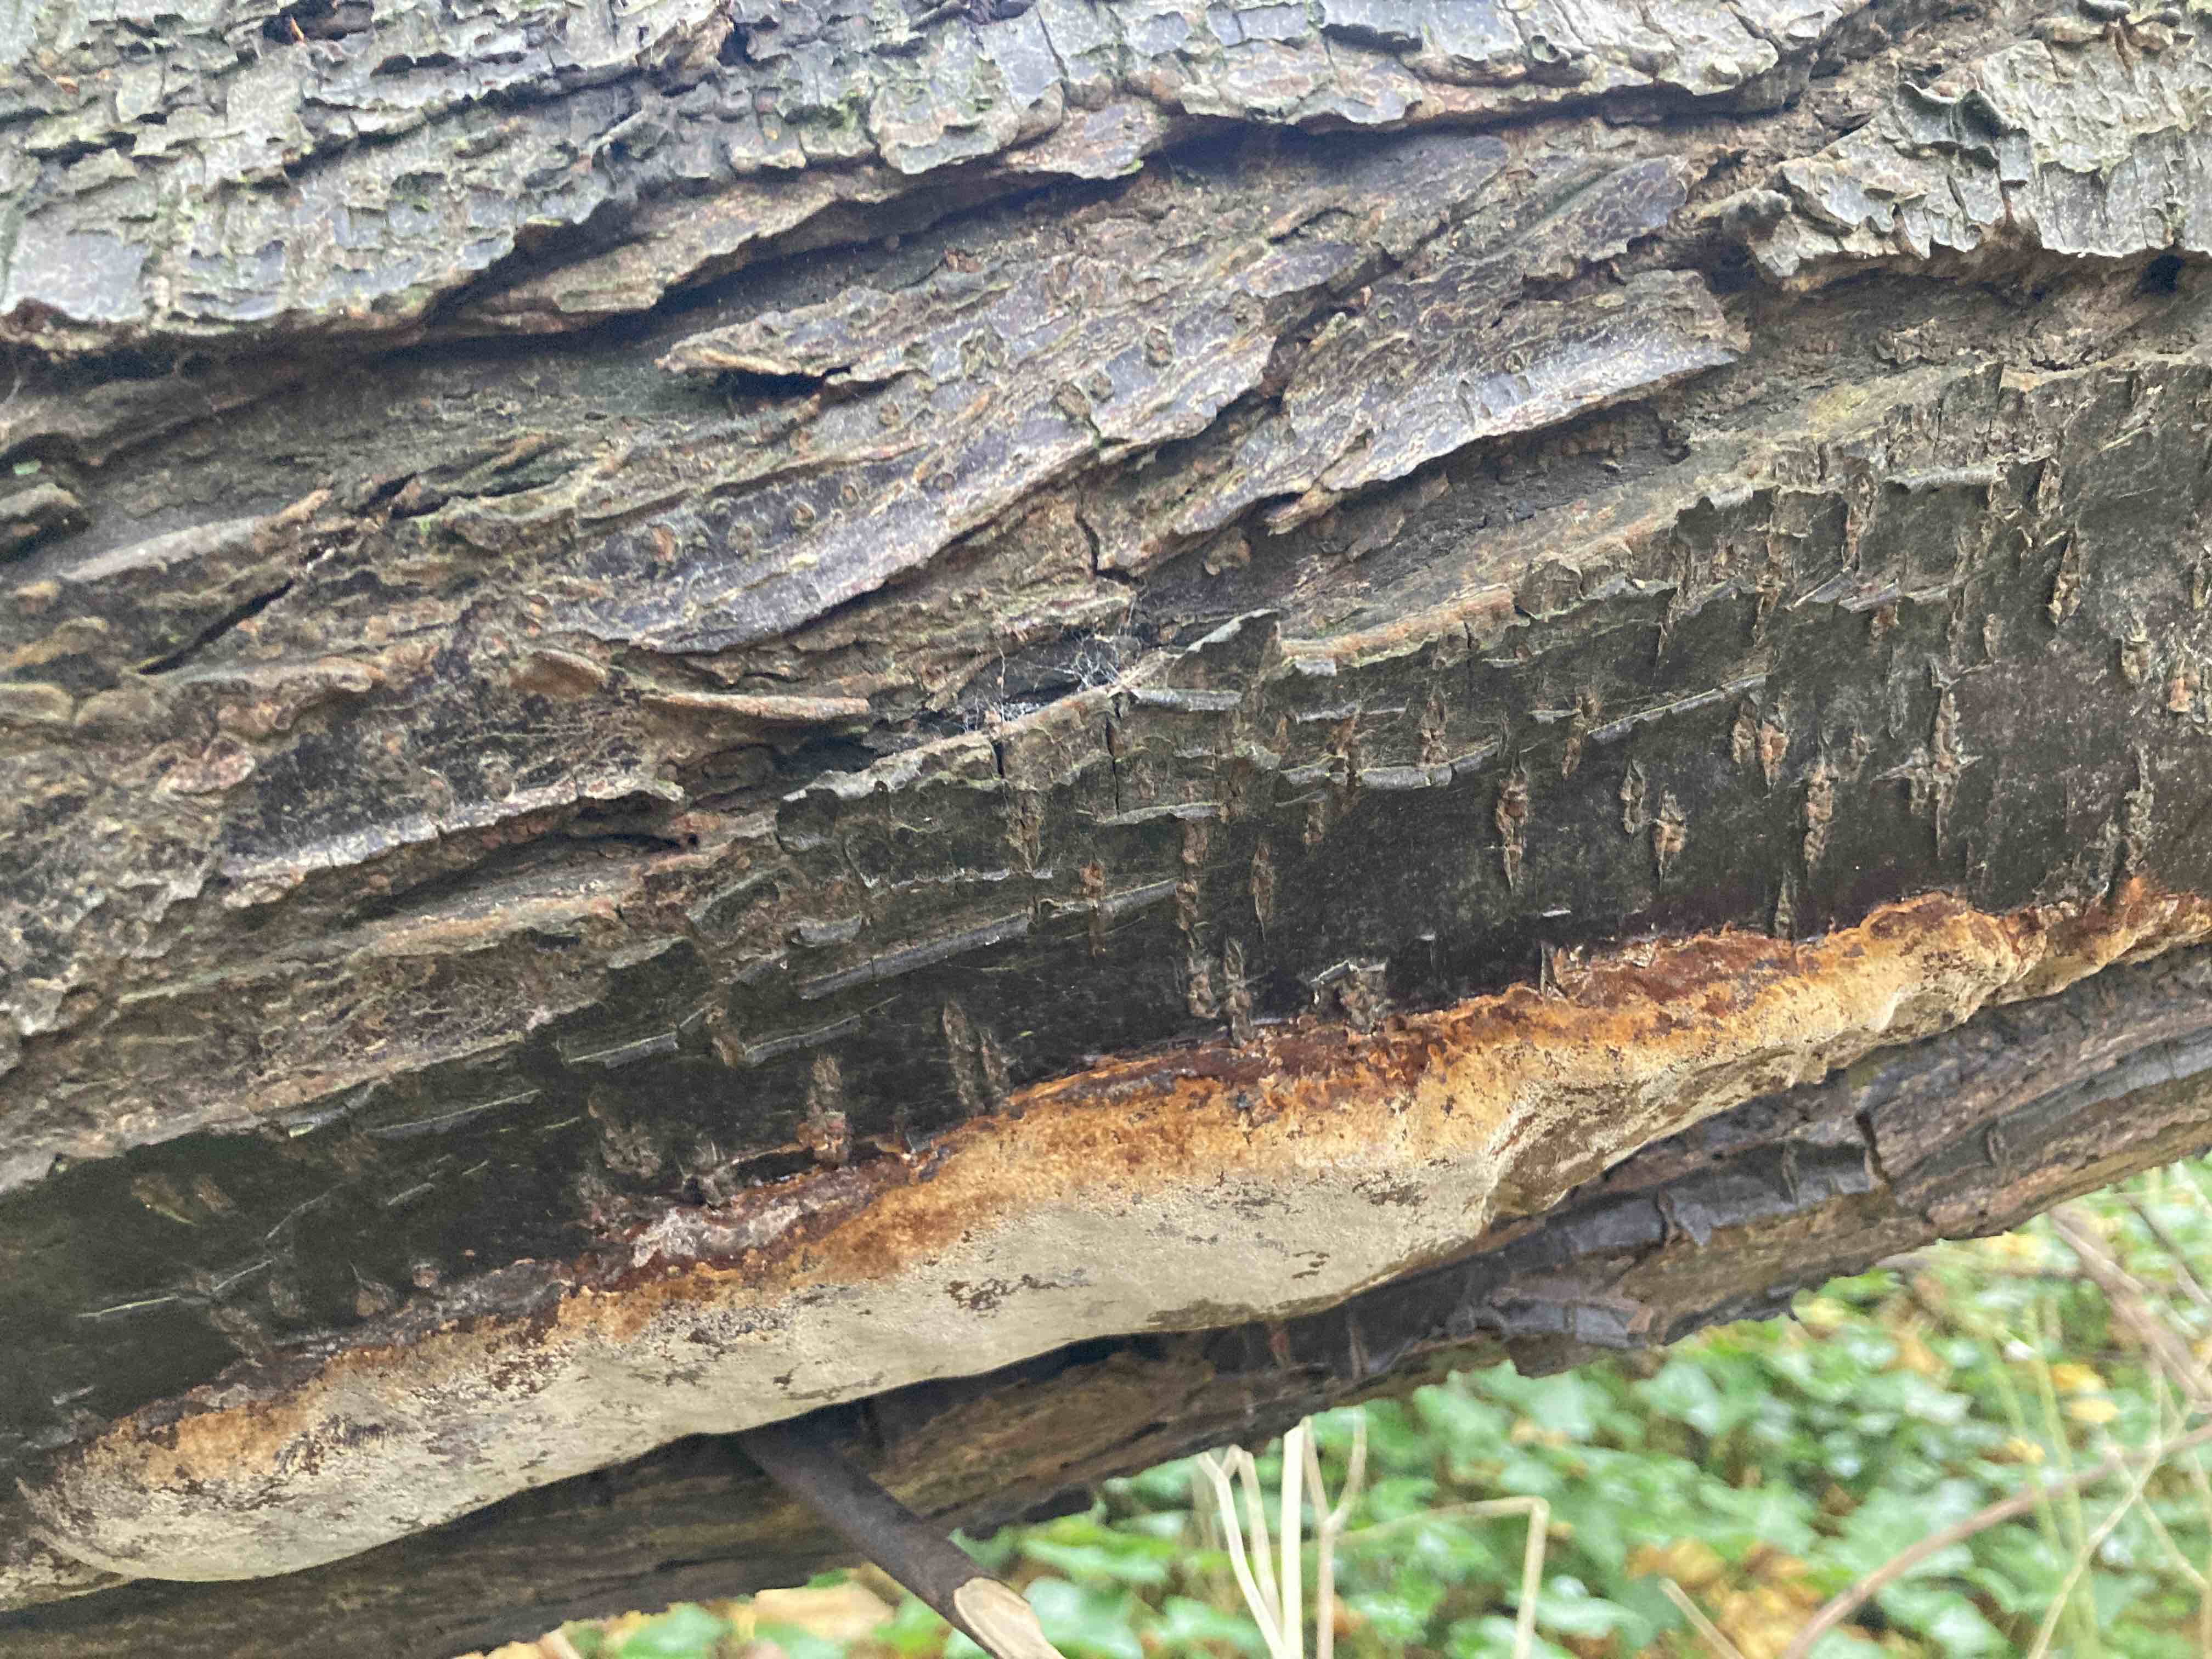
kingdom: Fungi
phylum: Basidiomycota
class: Agaricomycetes
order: Hymenochaetales
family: Hymenochaetaceae
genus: Phellinus
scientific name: Phellinus pomaceus
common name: blomme-ildporesvamp
